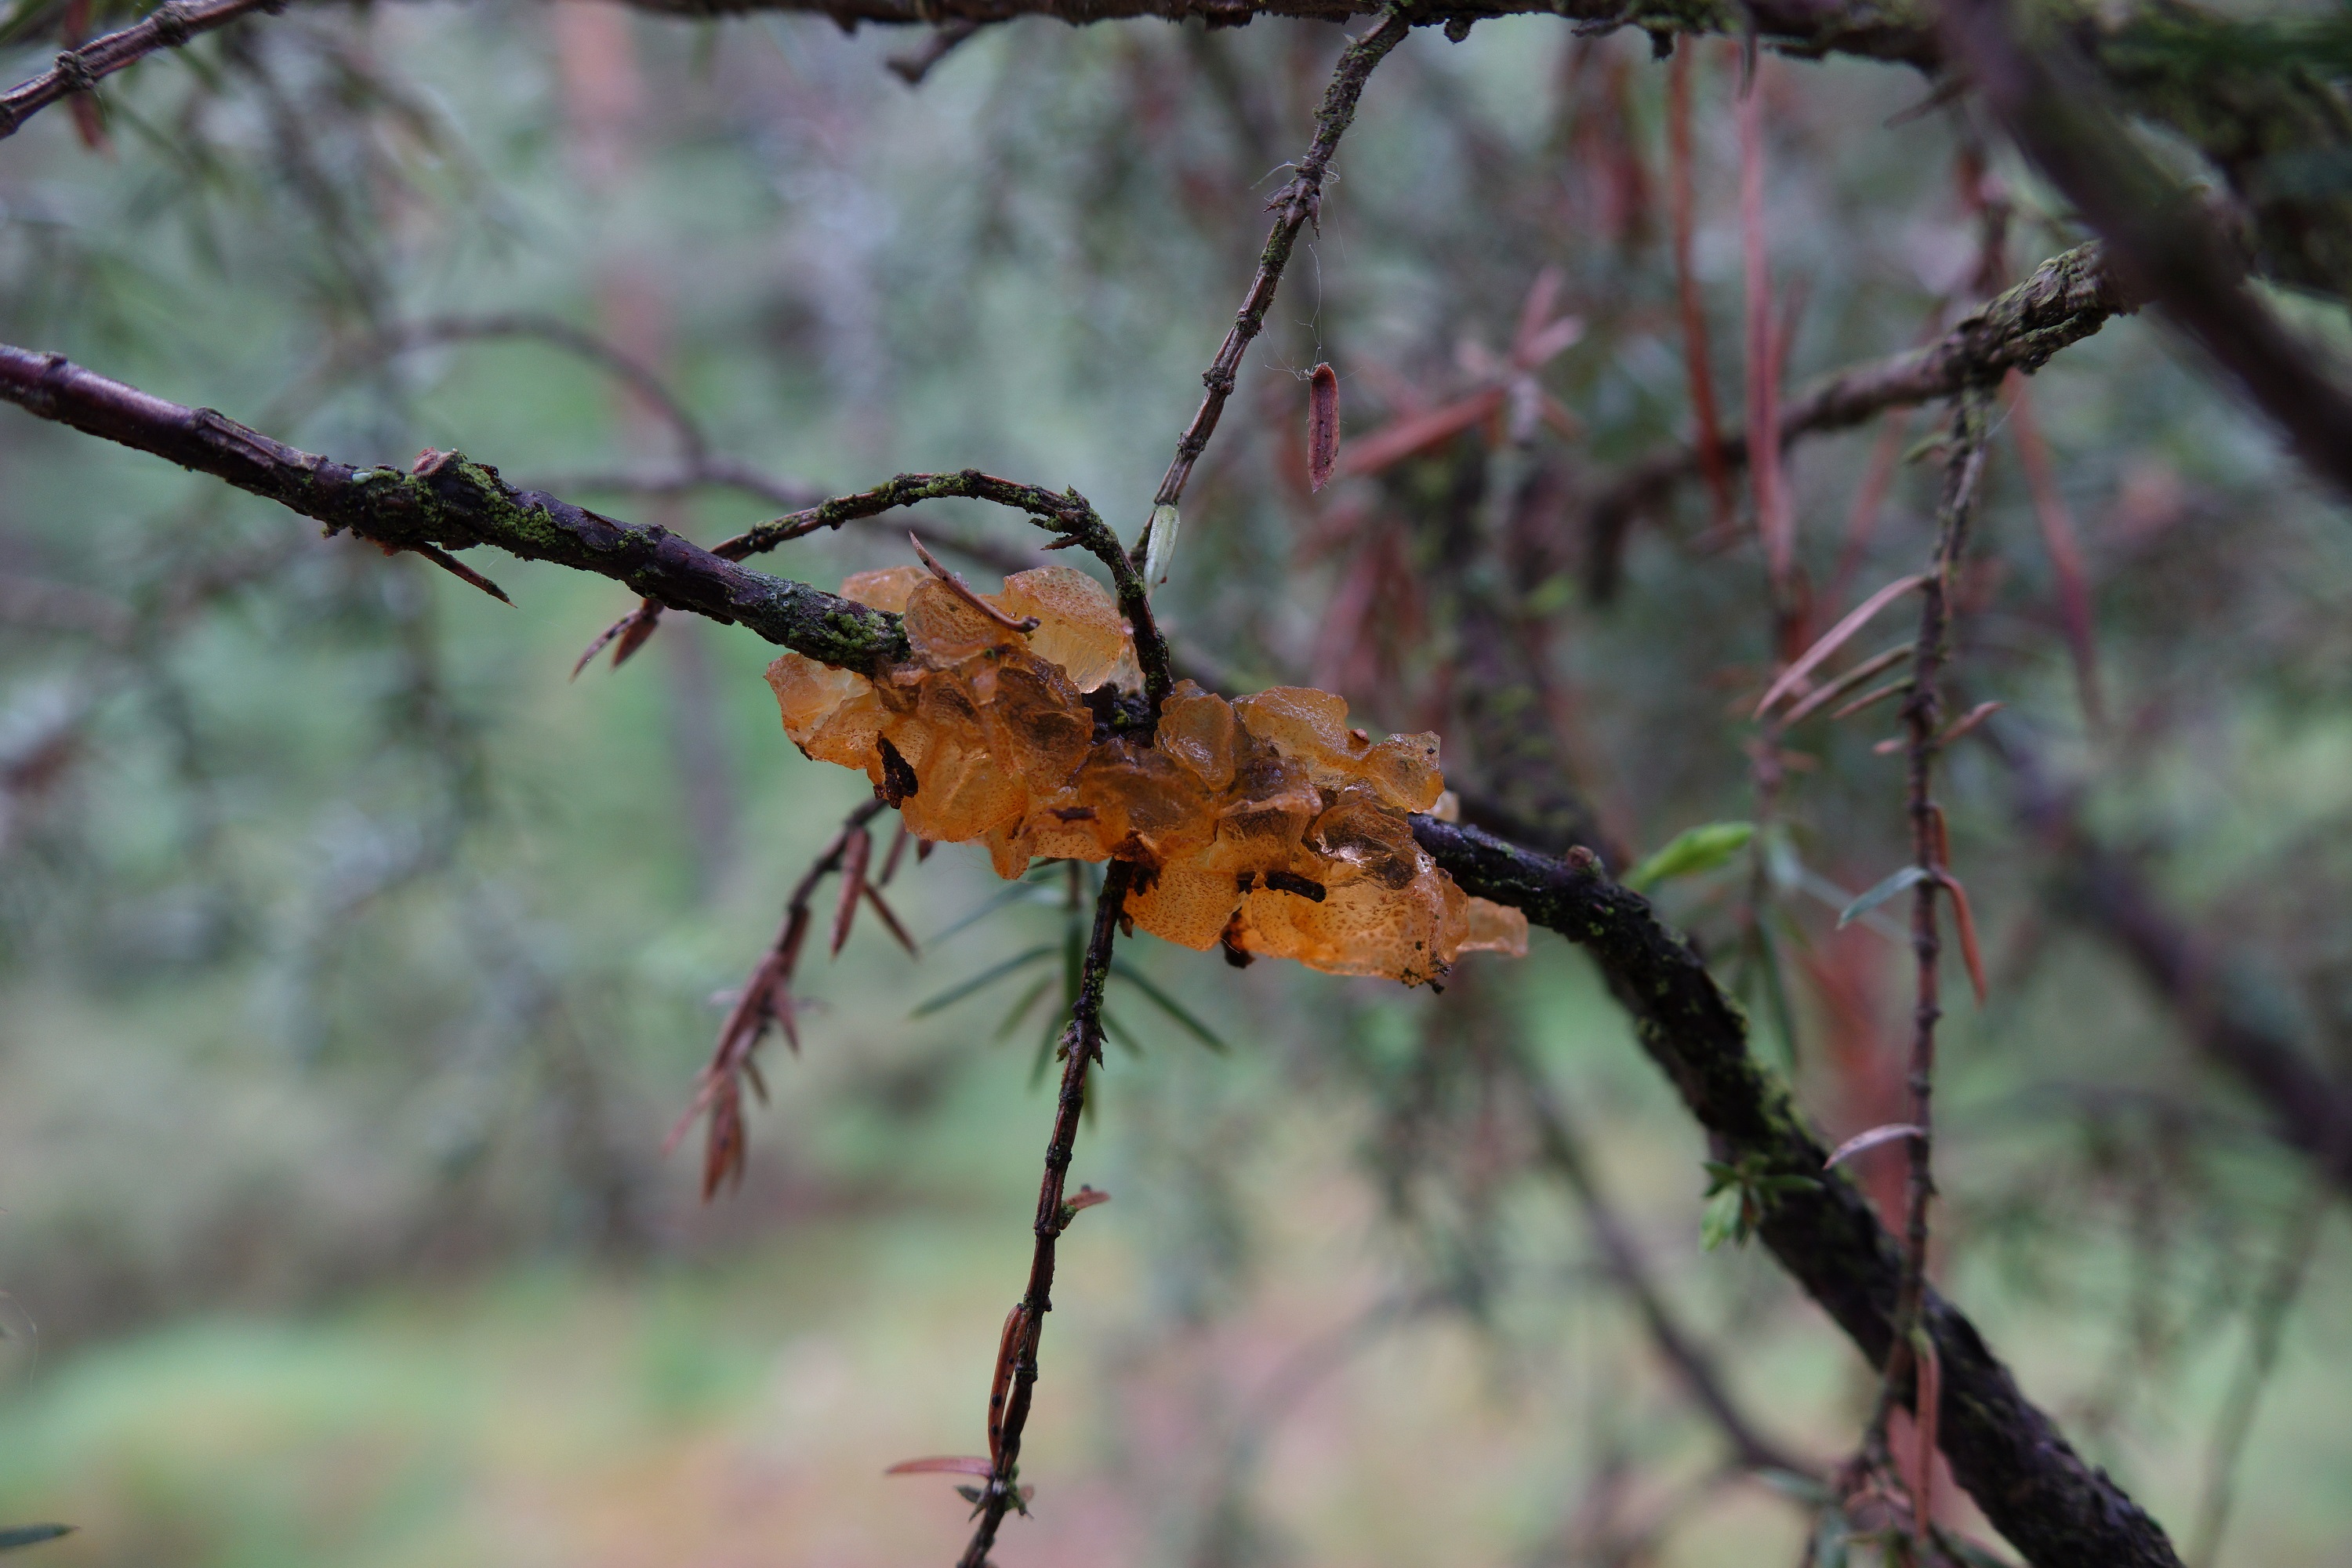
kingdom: Fungi
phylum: Basidiomycota
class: Pucciniomycetes
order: Pucciniales
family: Gymnosporangiaceae
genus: Gymnosporangium
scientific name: Gymnosporangium cornutum
